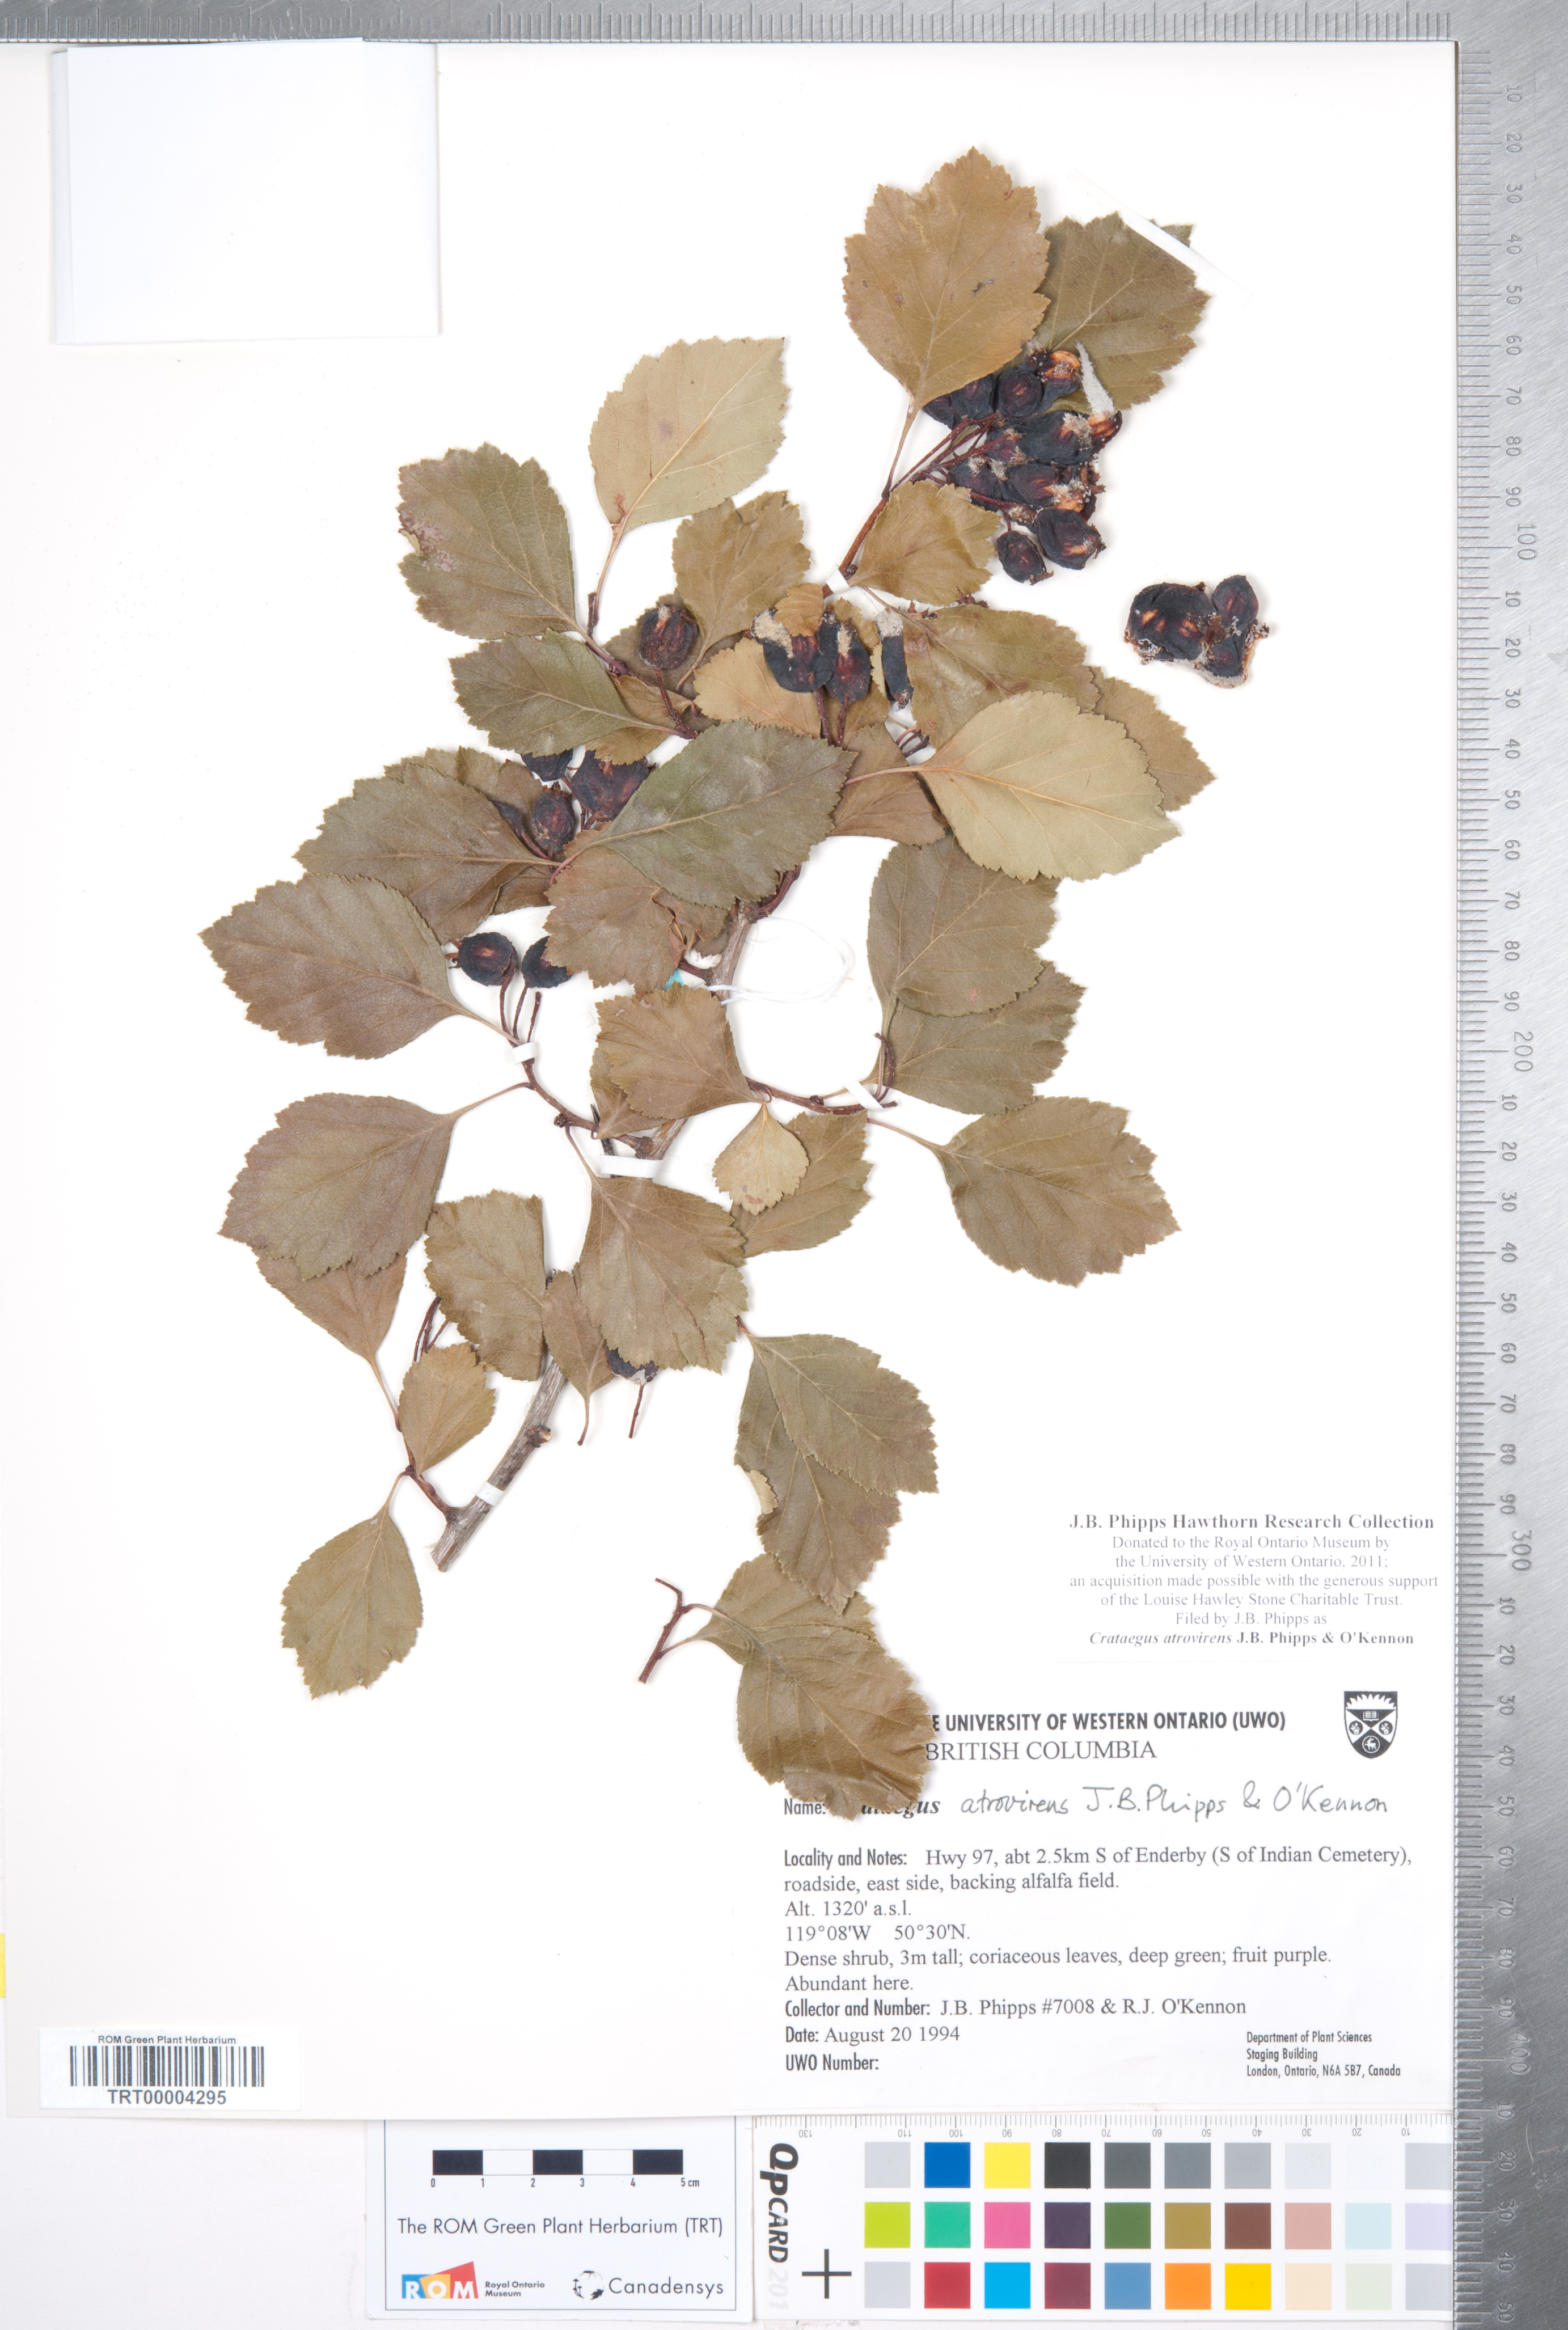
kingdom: Plantae
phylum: Tracheophyta
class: Magnoliopsida
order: Rosales
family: Rosaceae
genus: Crataegus
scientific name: Crataegus atrovirens
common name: Dark green hawthorn
